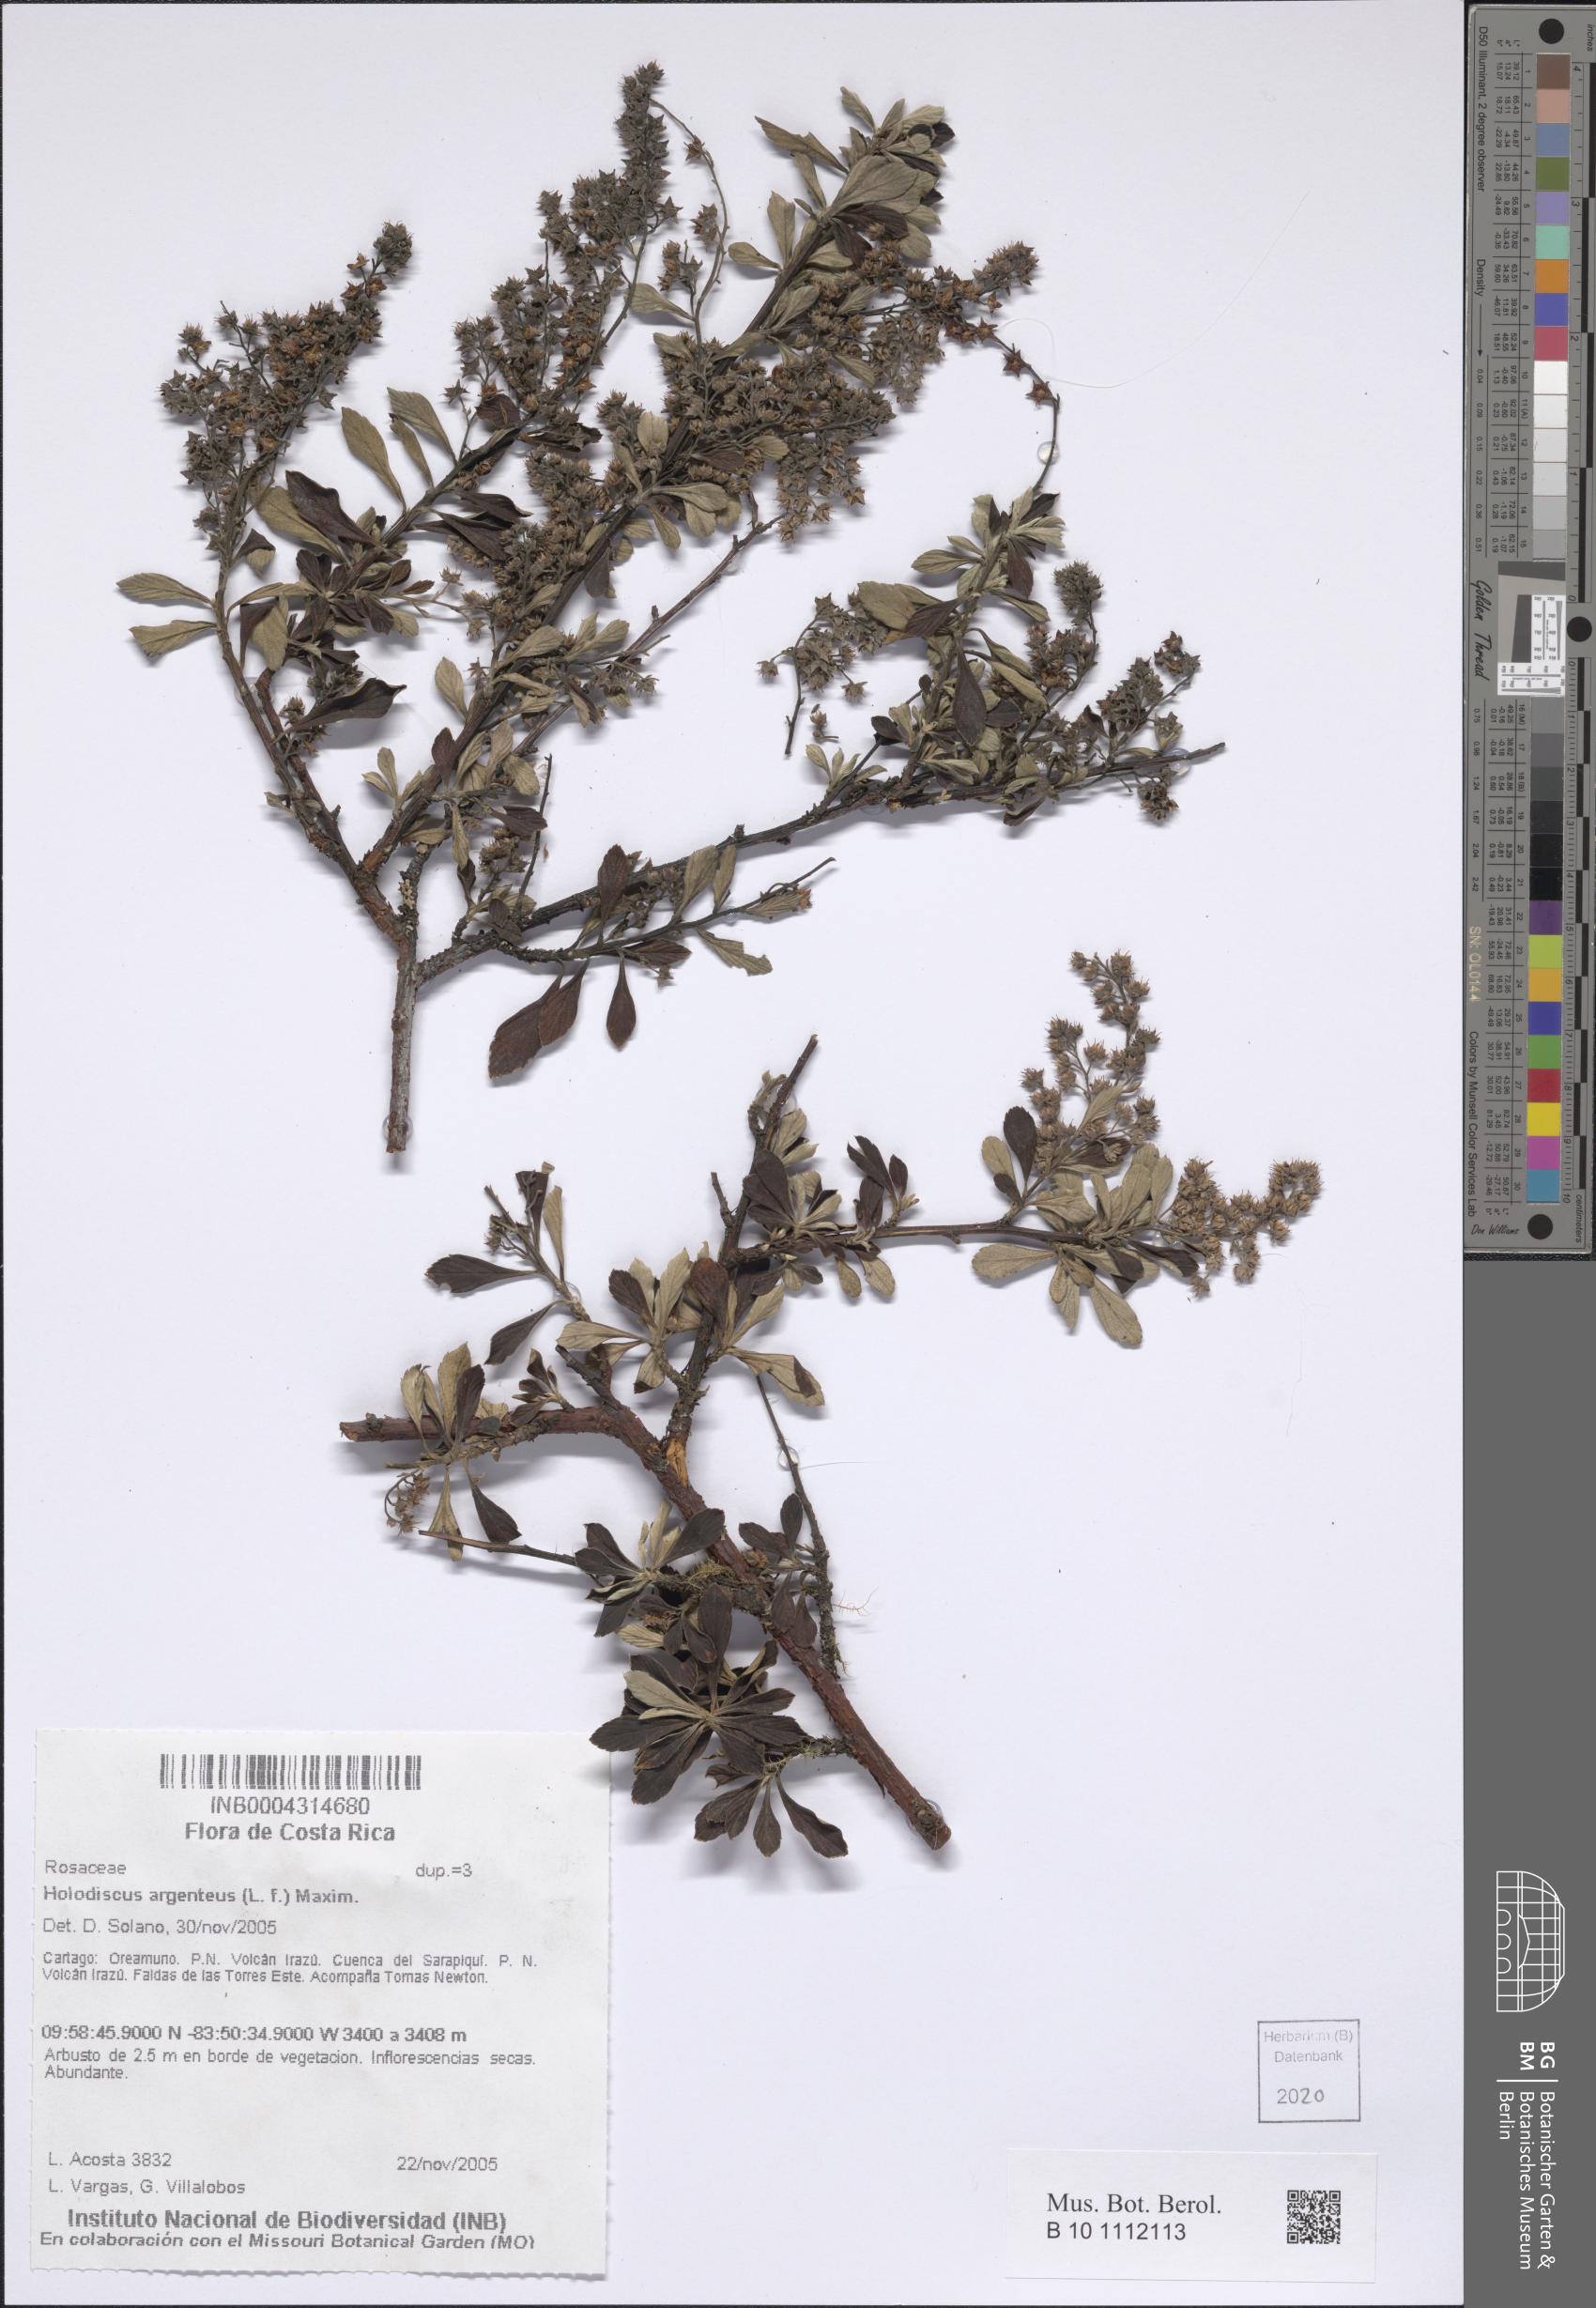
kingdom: Plantae
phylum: Tracheophyta
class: Magnoliopsida
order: Rosales
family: Rosaceae
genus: Holodiscus
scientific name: Holodiscus argenteus
